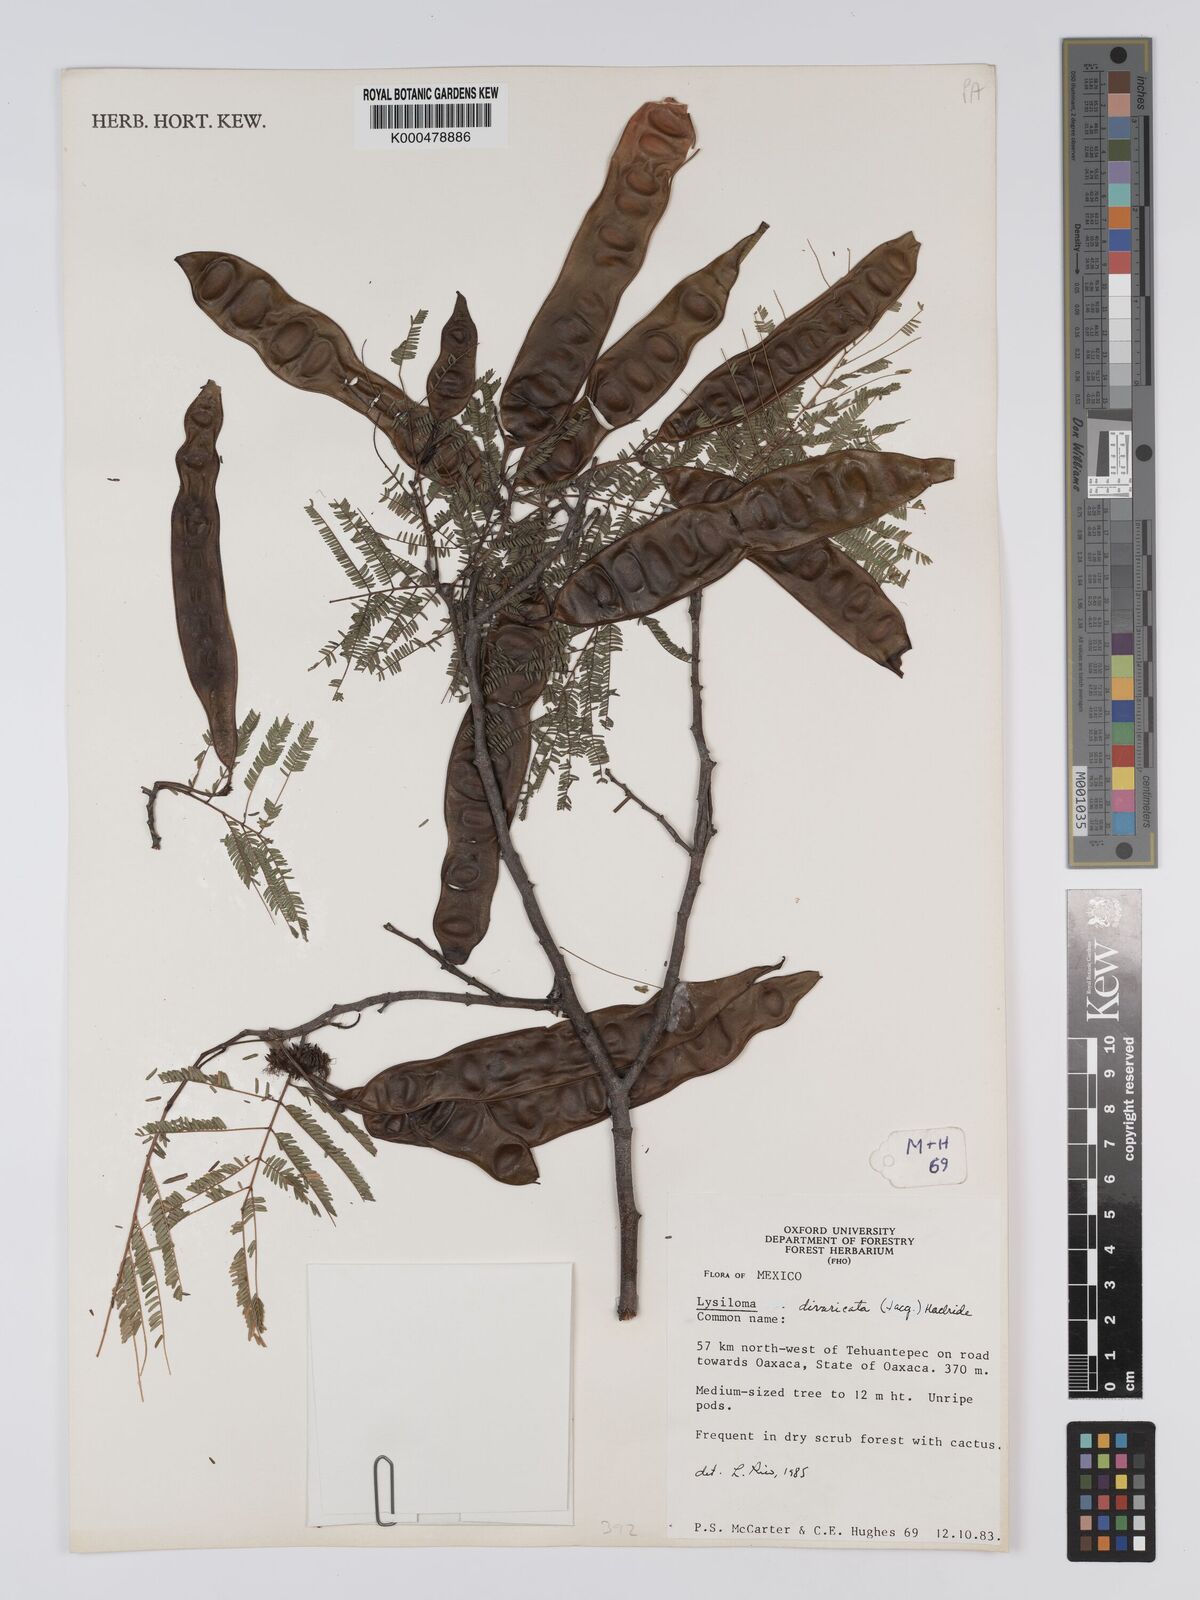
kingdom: Plantae
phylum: Tracheophyta
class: Magnoliopsida
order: Fabales
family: Fabaceae
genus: Lysiloma
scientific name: Lysiloma divaricatum
